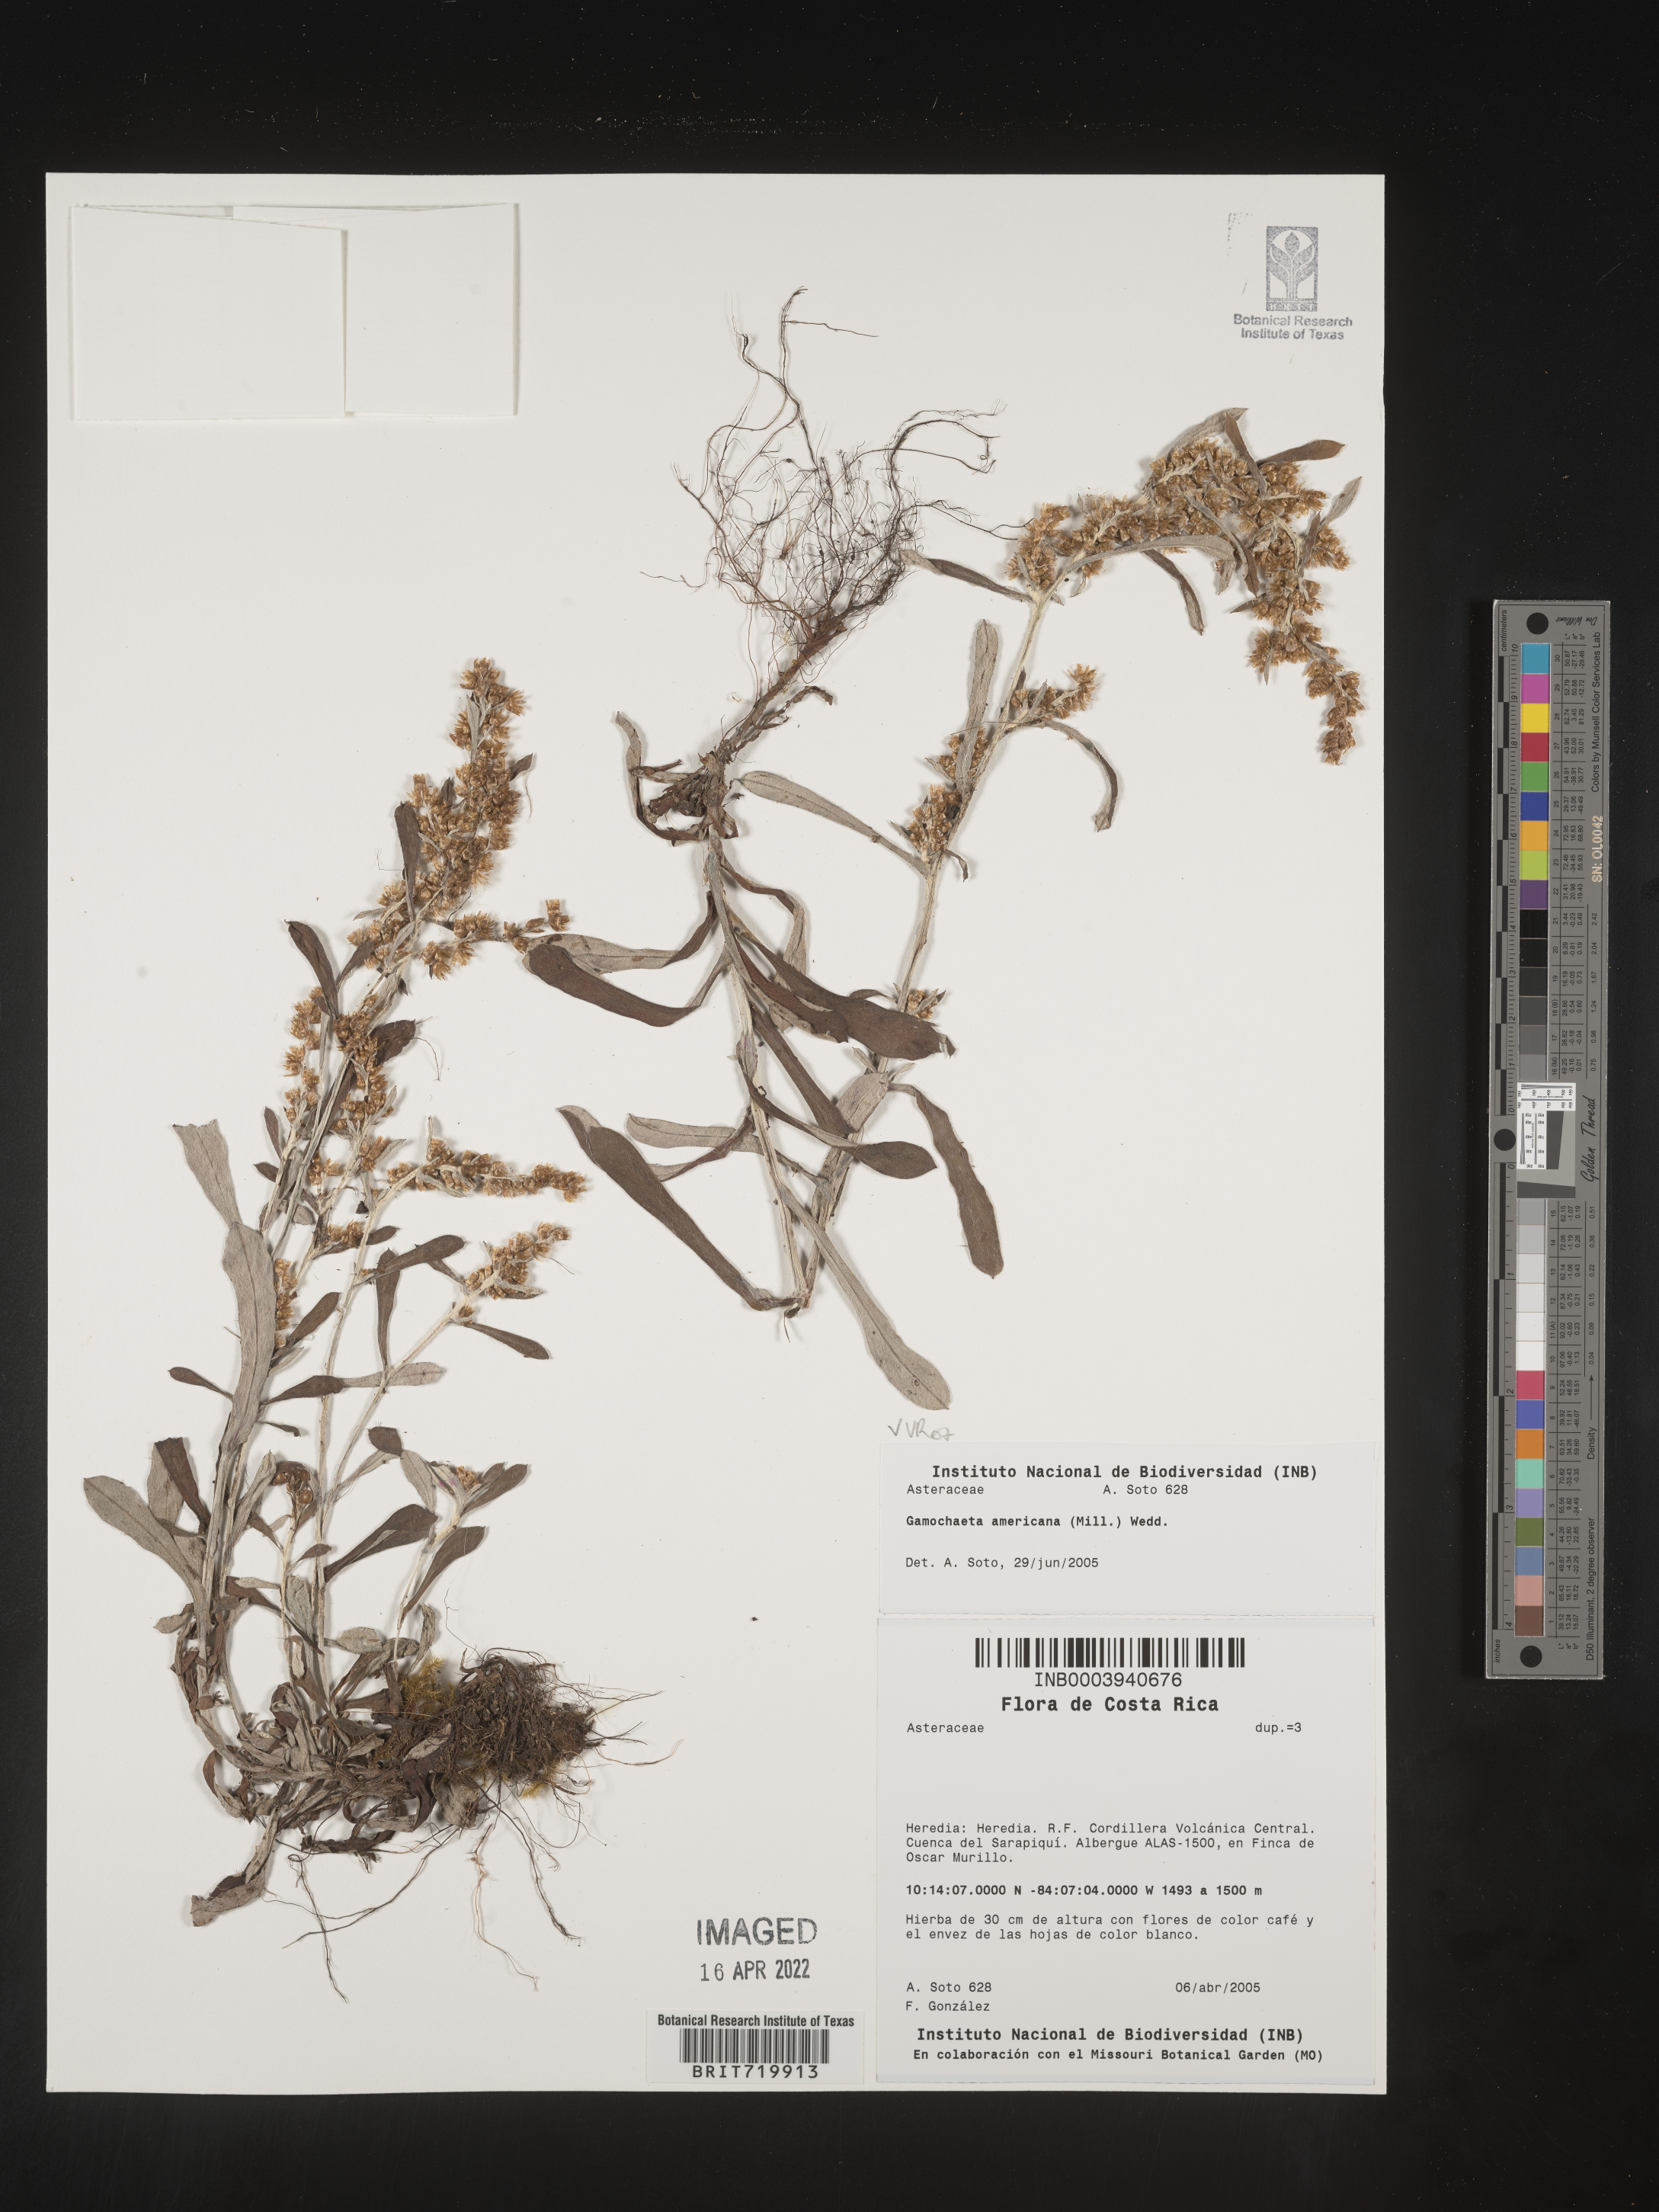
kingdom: Plantae
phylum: Tracheophyta
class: Magnoliopsida
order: Asterales
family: Asteraceae
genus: Gamochaeta
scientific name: Gamochaeta
